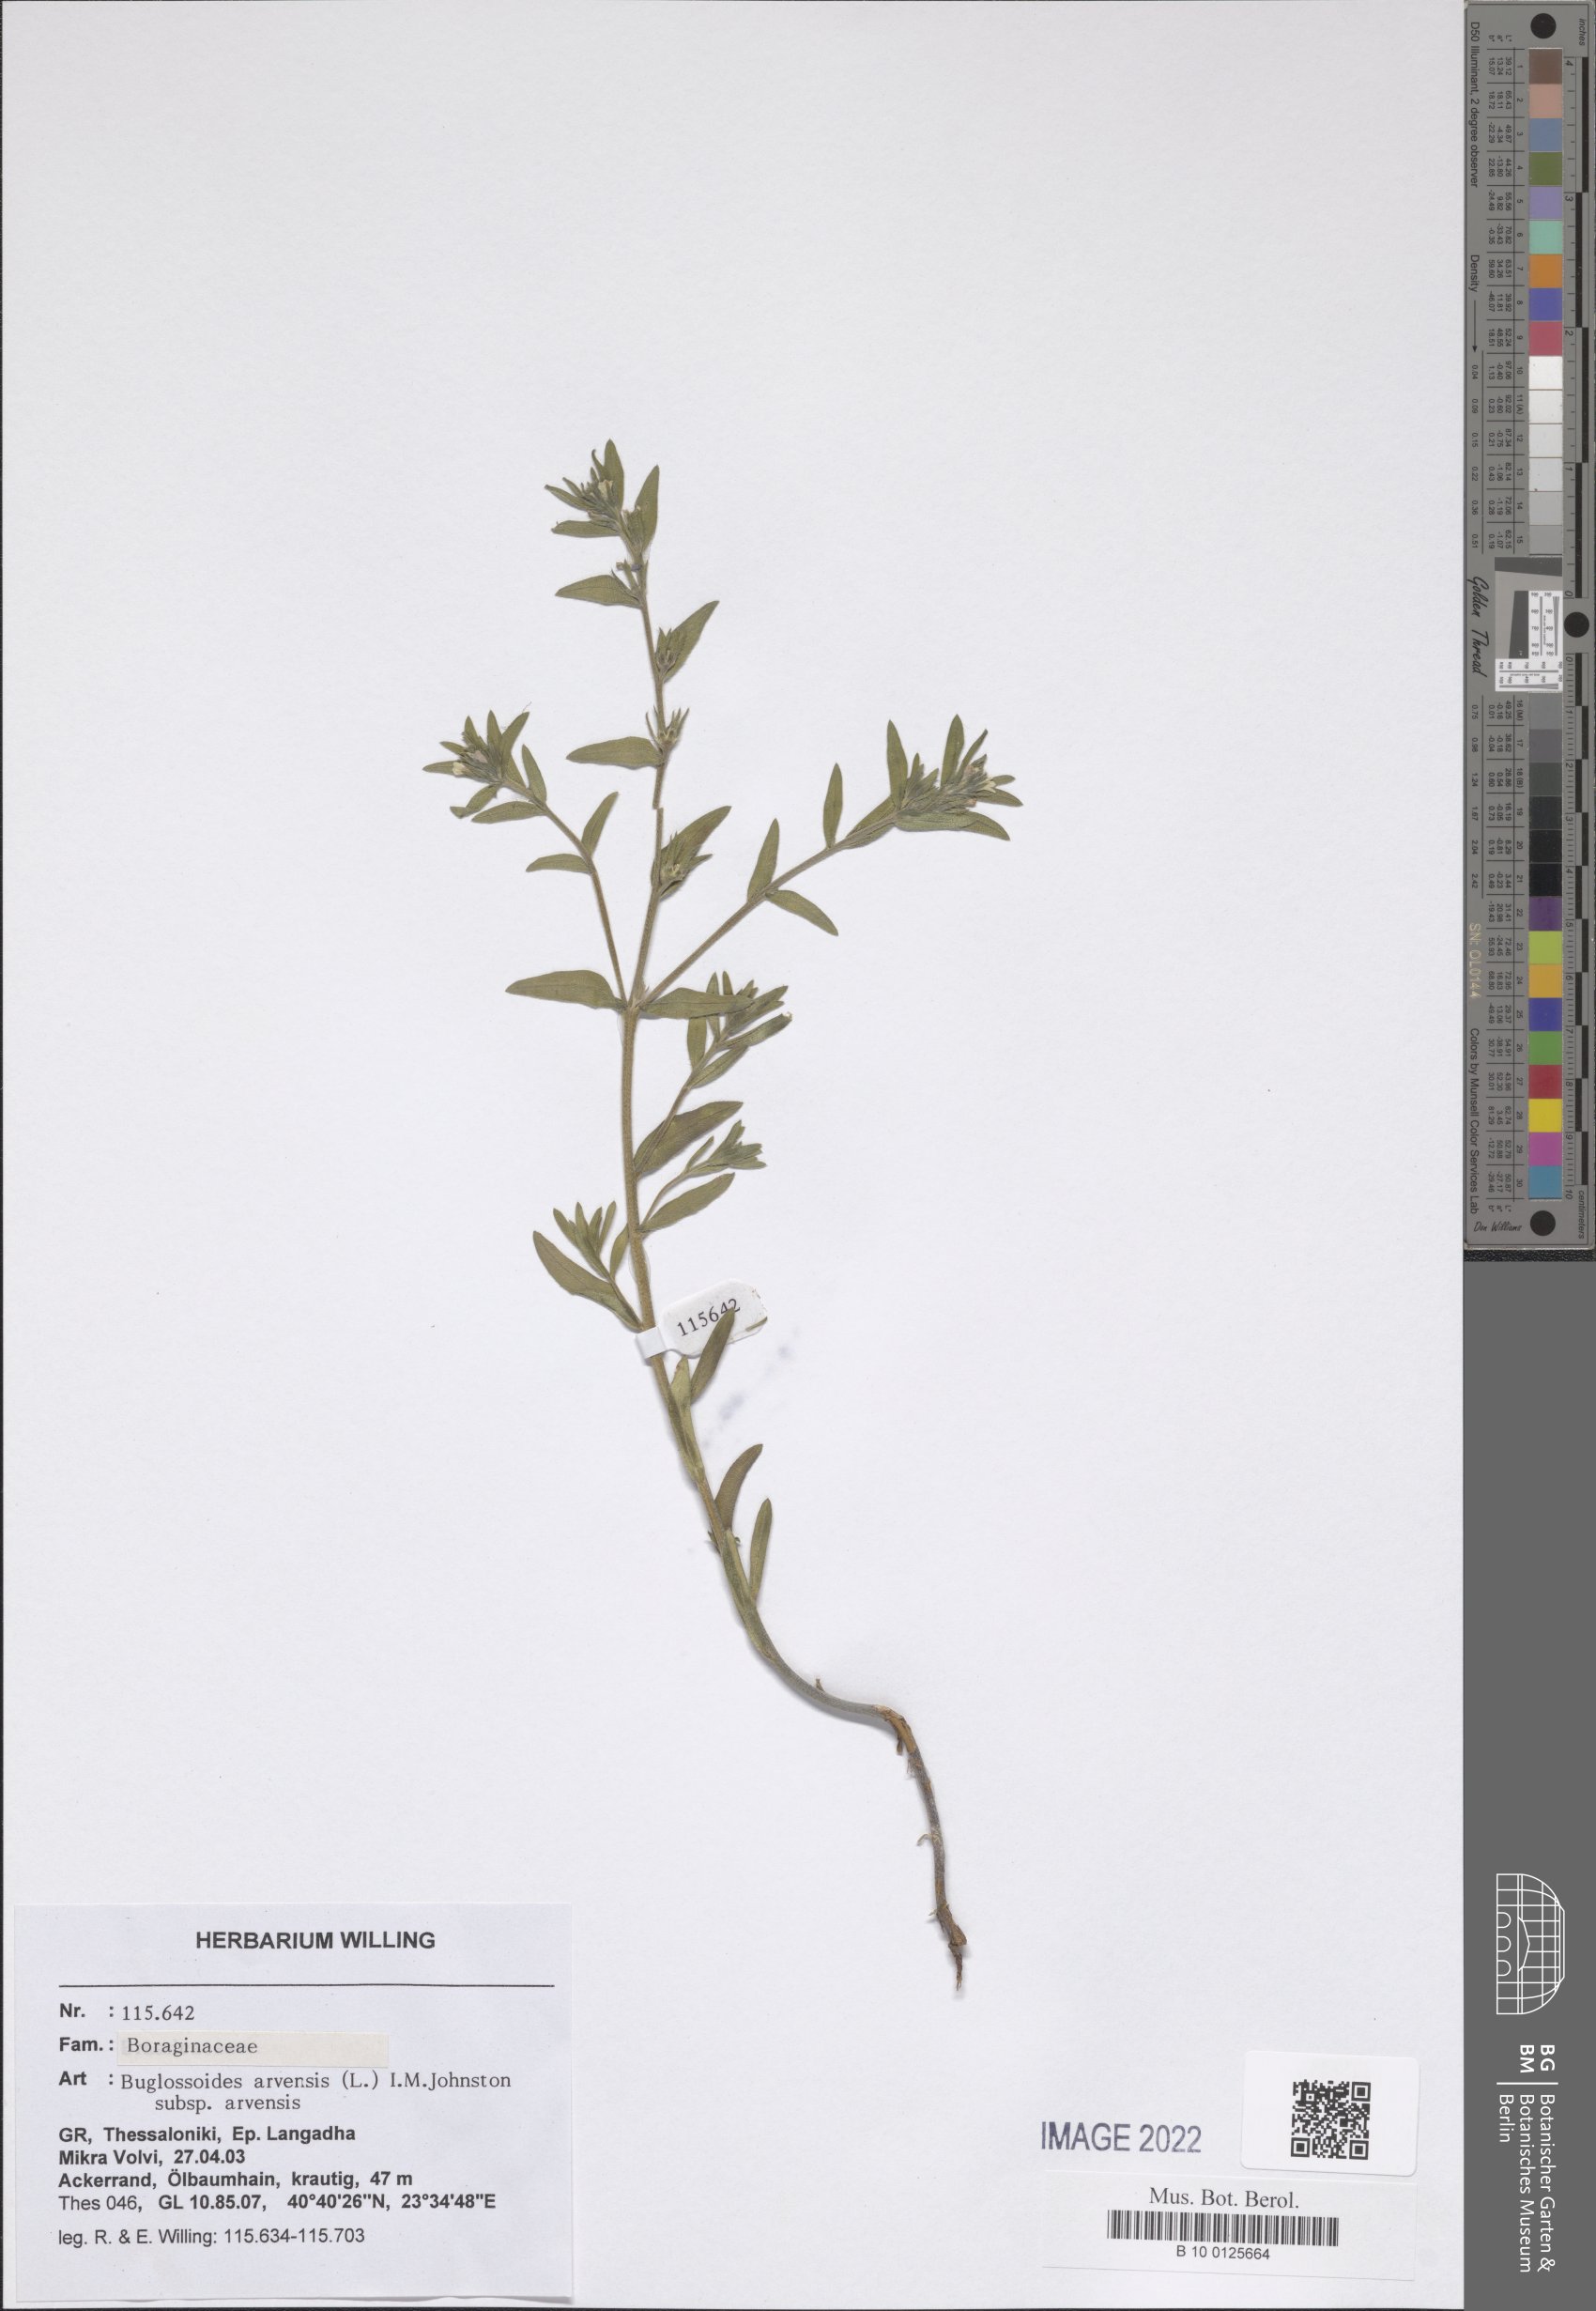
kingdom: Plantae
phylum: Tracheophyta
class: Magnoliopsida
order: Boraginales
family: Boraginaceae
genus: Buglossoides
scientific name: Buglossoides arvensis
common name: Corn gromwell
